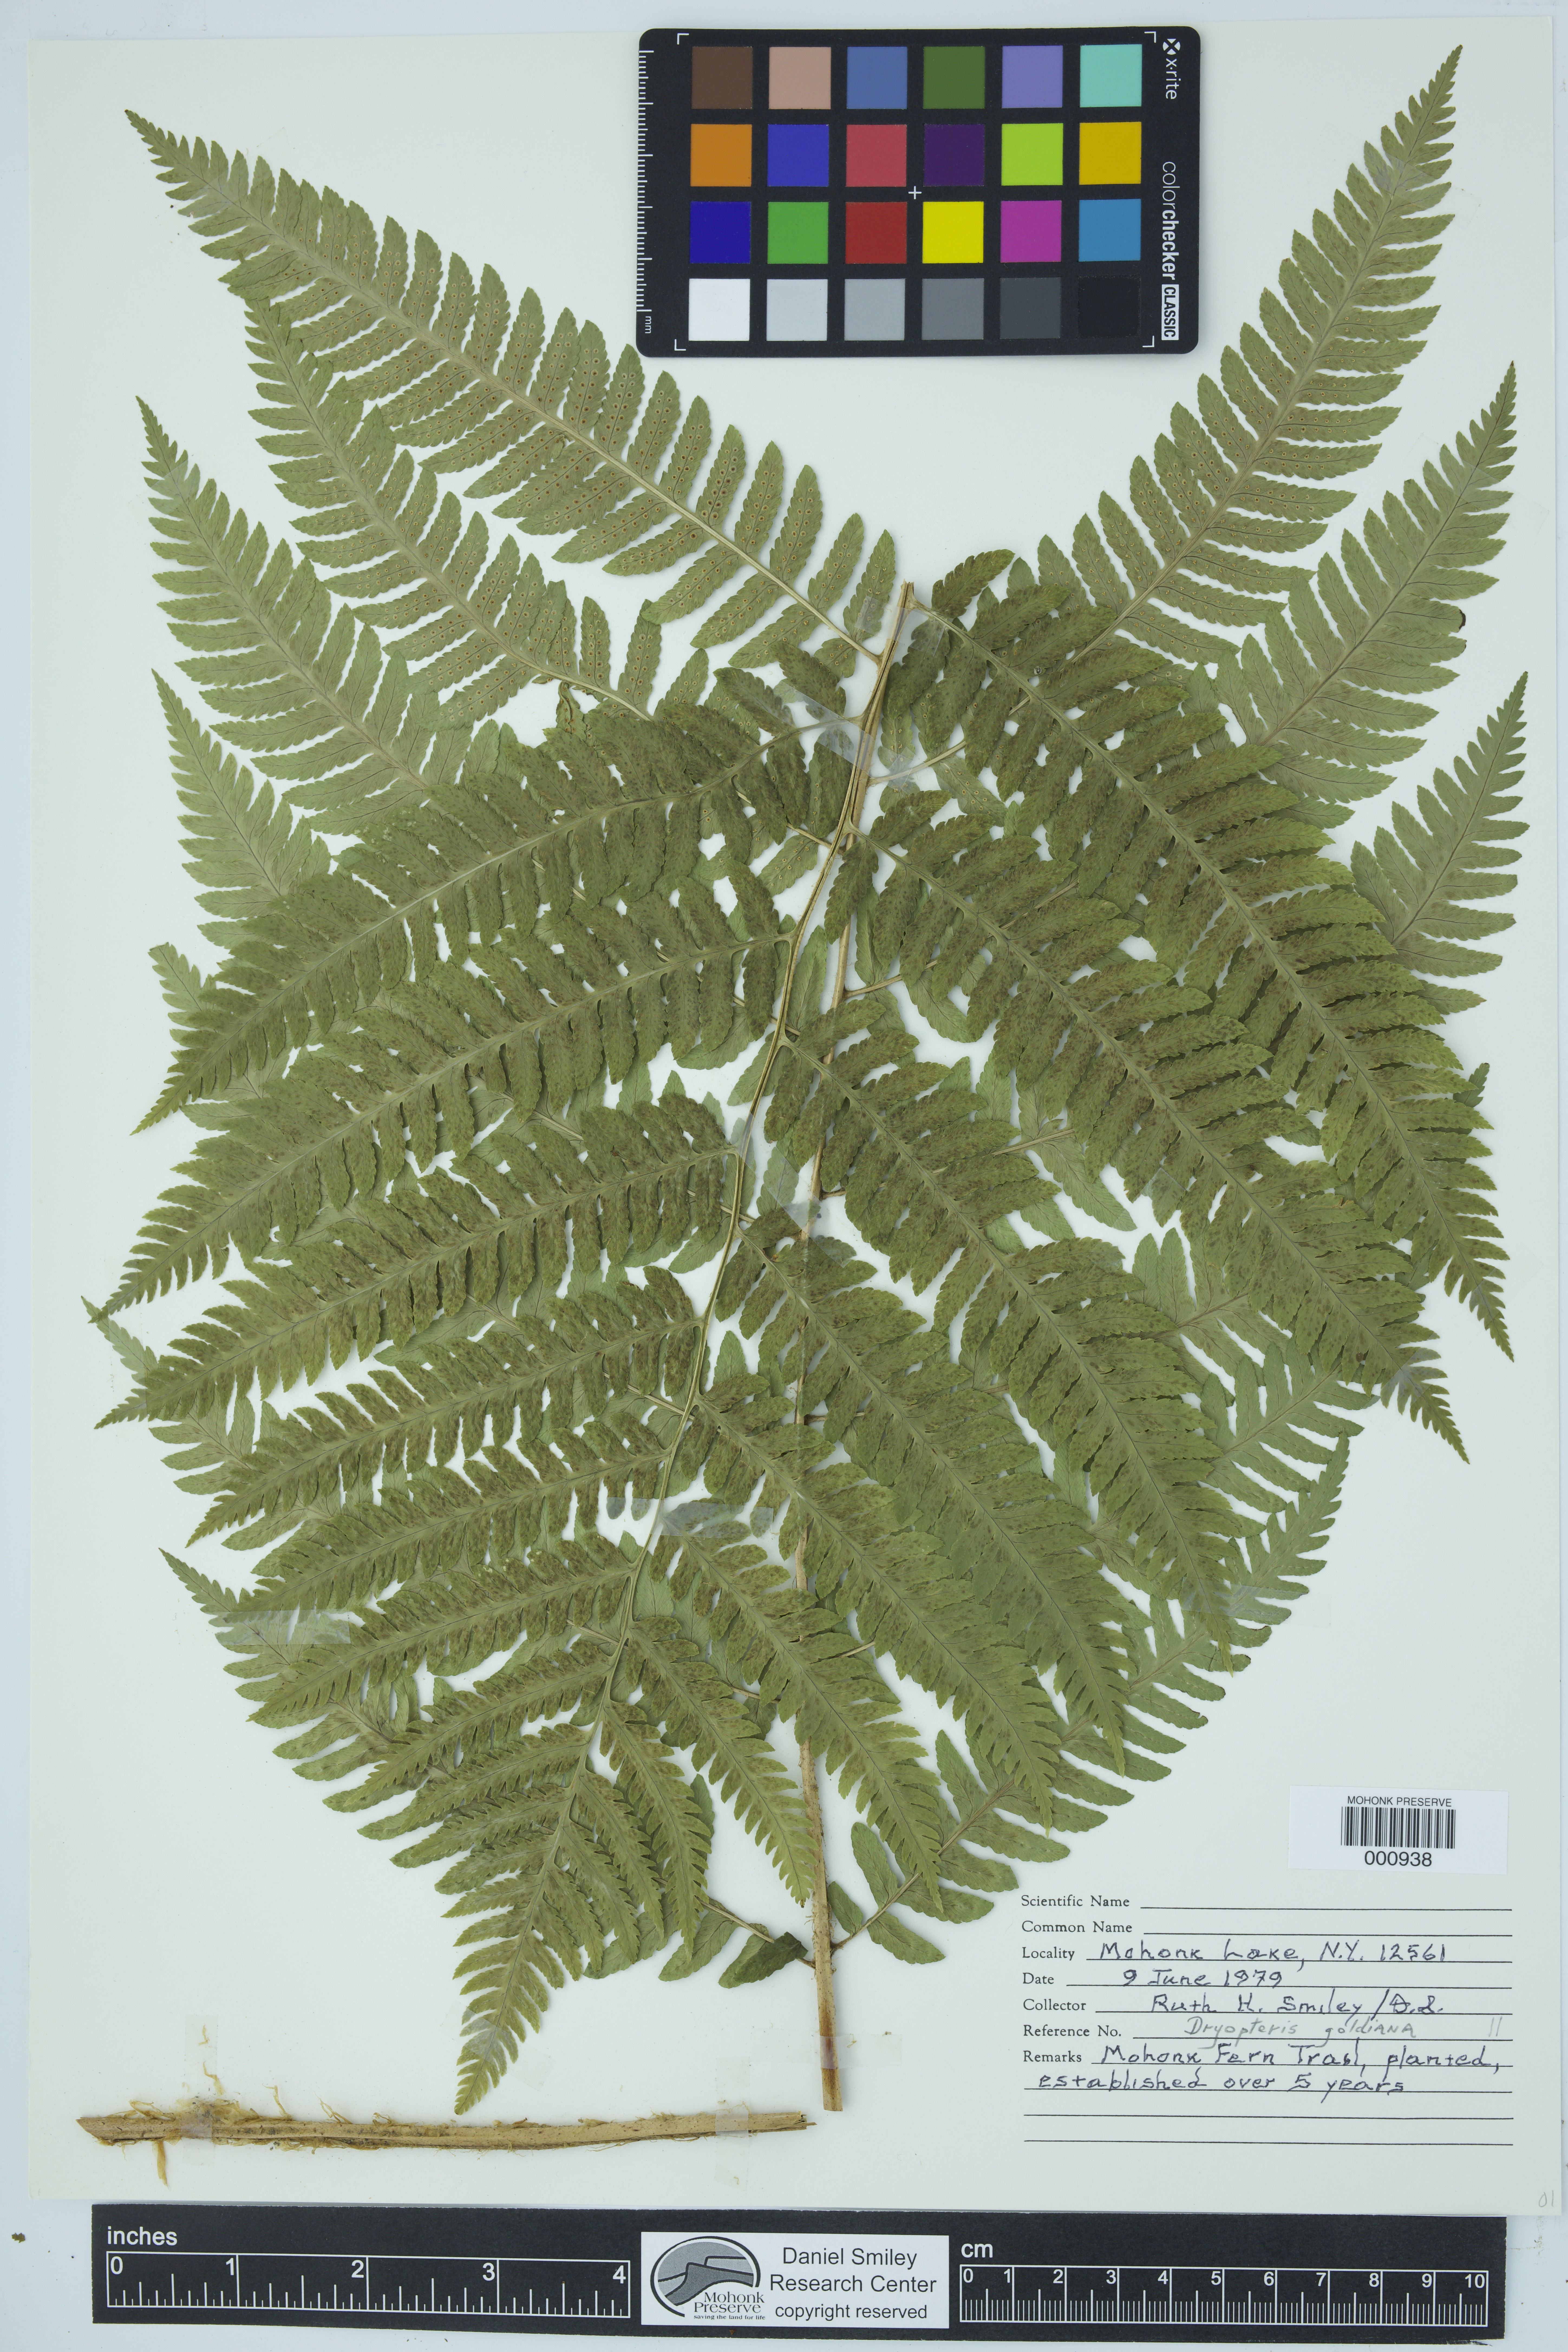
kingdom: Plantae
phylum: Tracheophyta
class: Polypodiopsida
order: Polypodiales
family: Dryopteridaceae
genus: Dryopteris
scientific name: Dryopteris goeldiana
